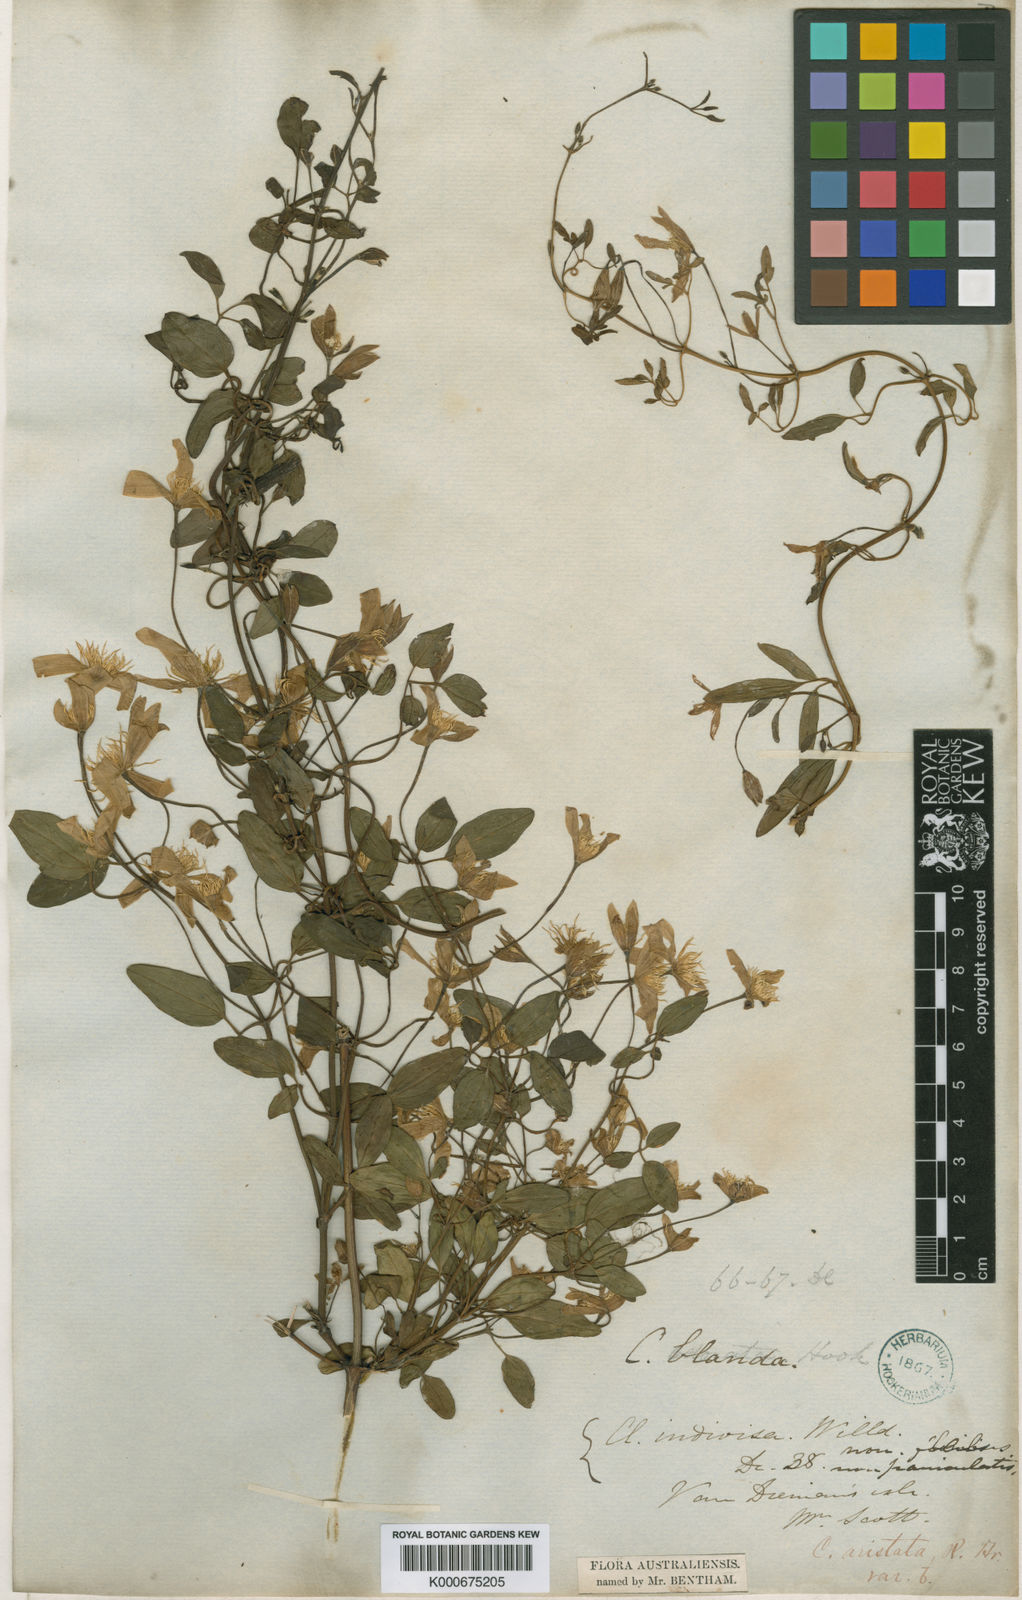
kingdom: Plantae
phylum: Tracheophyta
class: Magnoliopsida
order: Ranunculales
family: Ranunculaceae
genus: Clematis
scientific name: Clematis clitorioides
